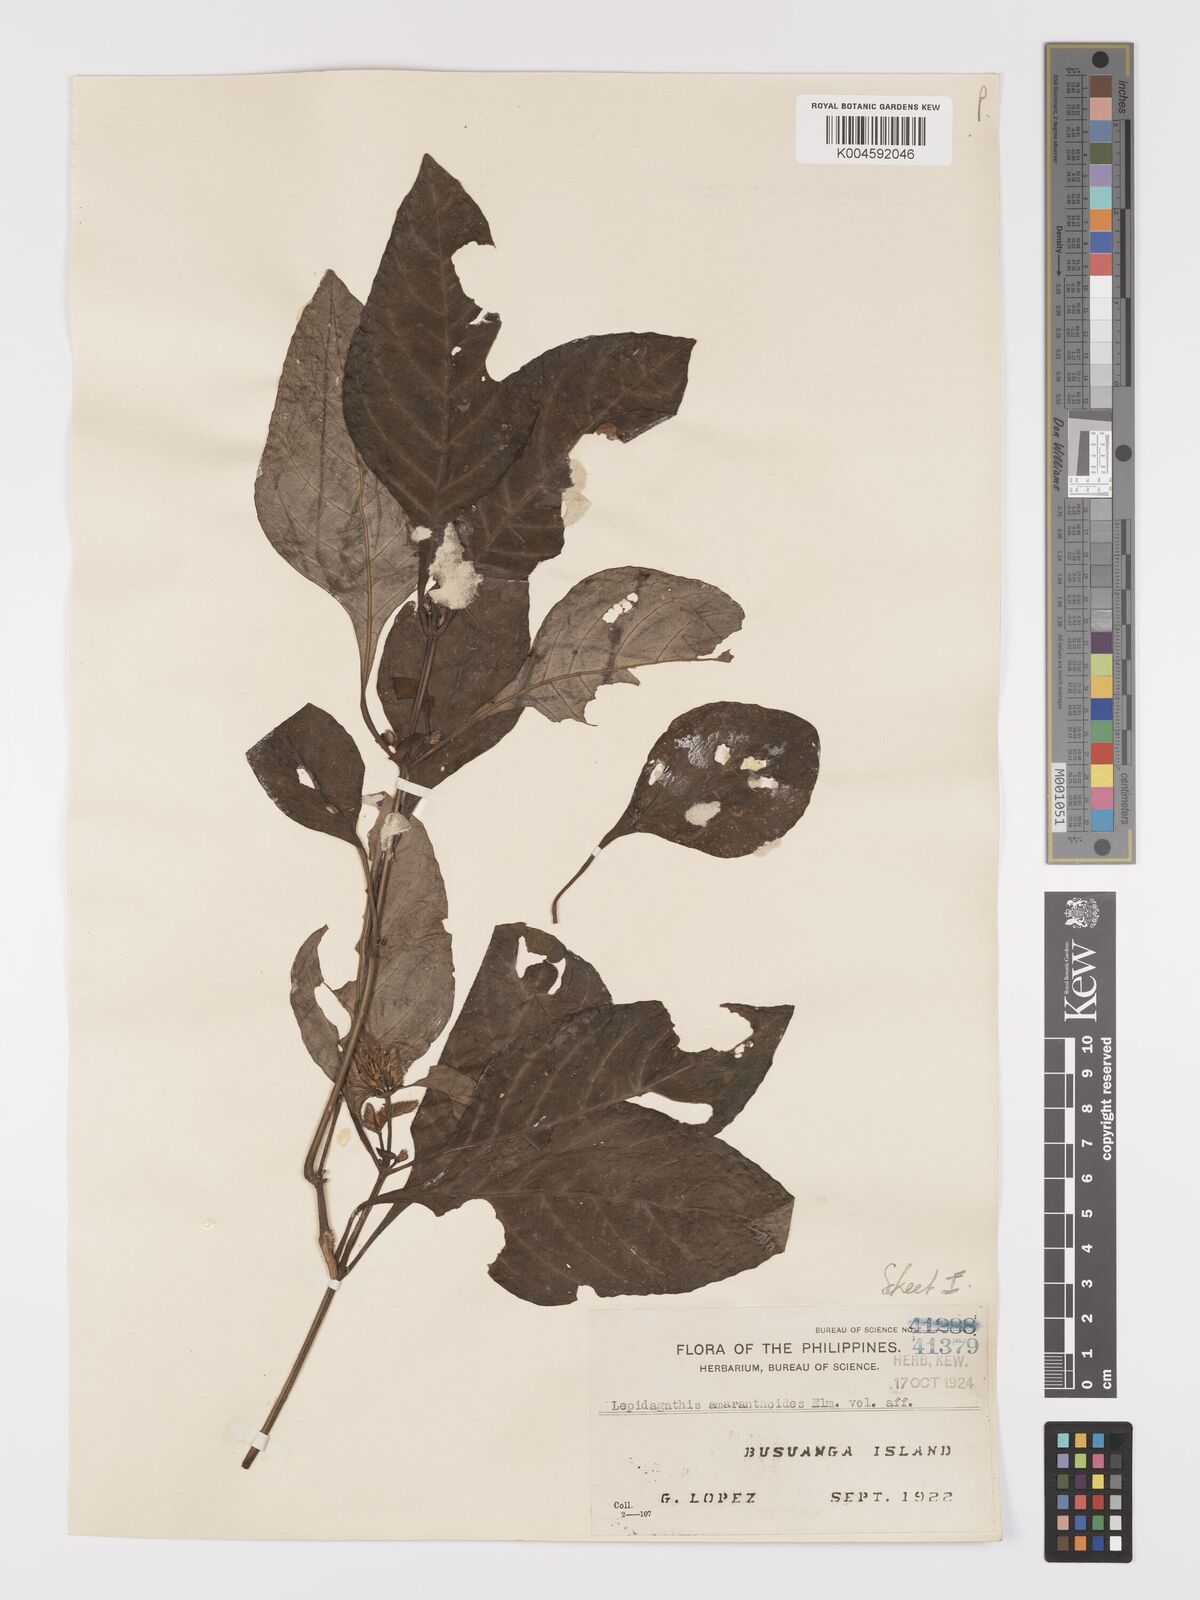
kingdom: Plantae
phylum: Tracheophyta
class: Magnoliopsida
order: Lamiales
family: Acanthaceae
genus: Lepidagathis
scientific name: Lepidagathis amaranthoides
